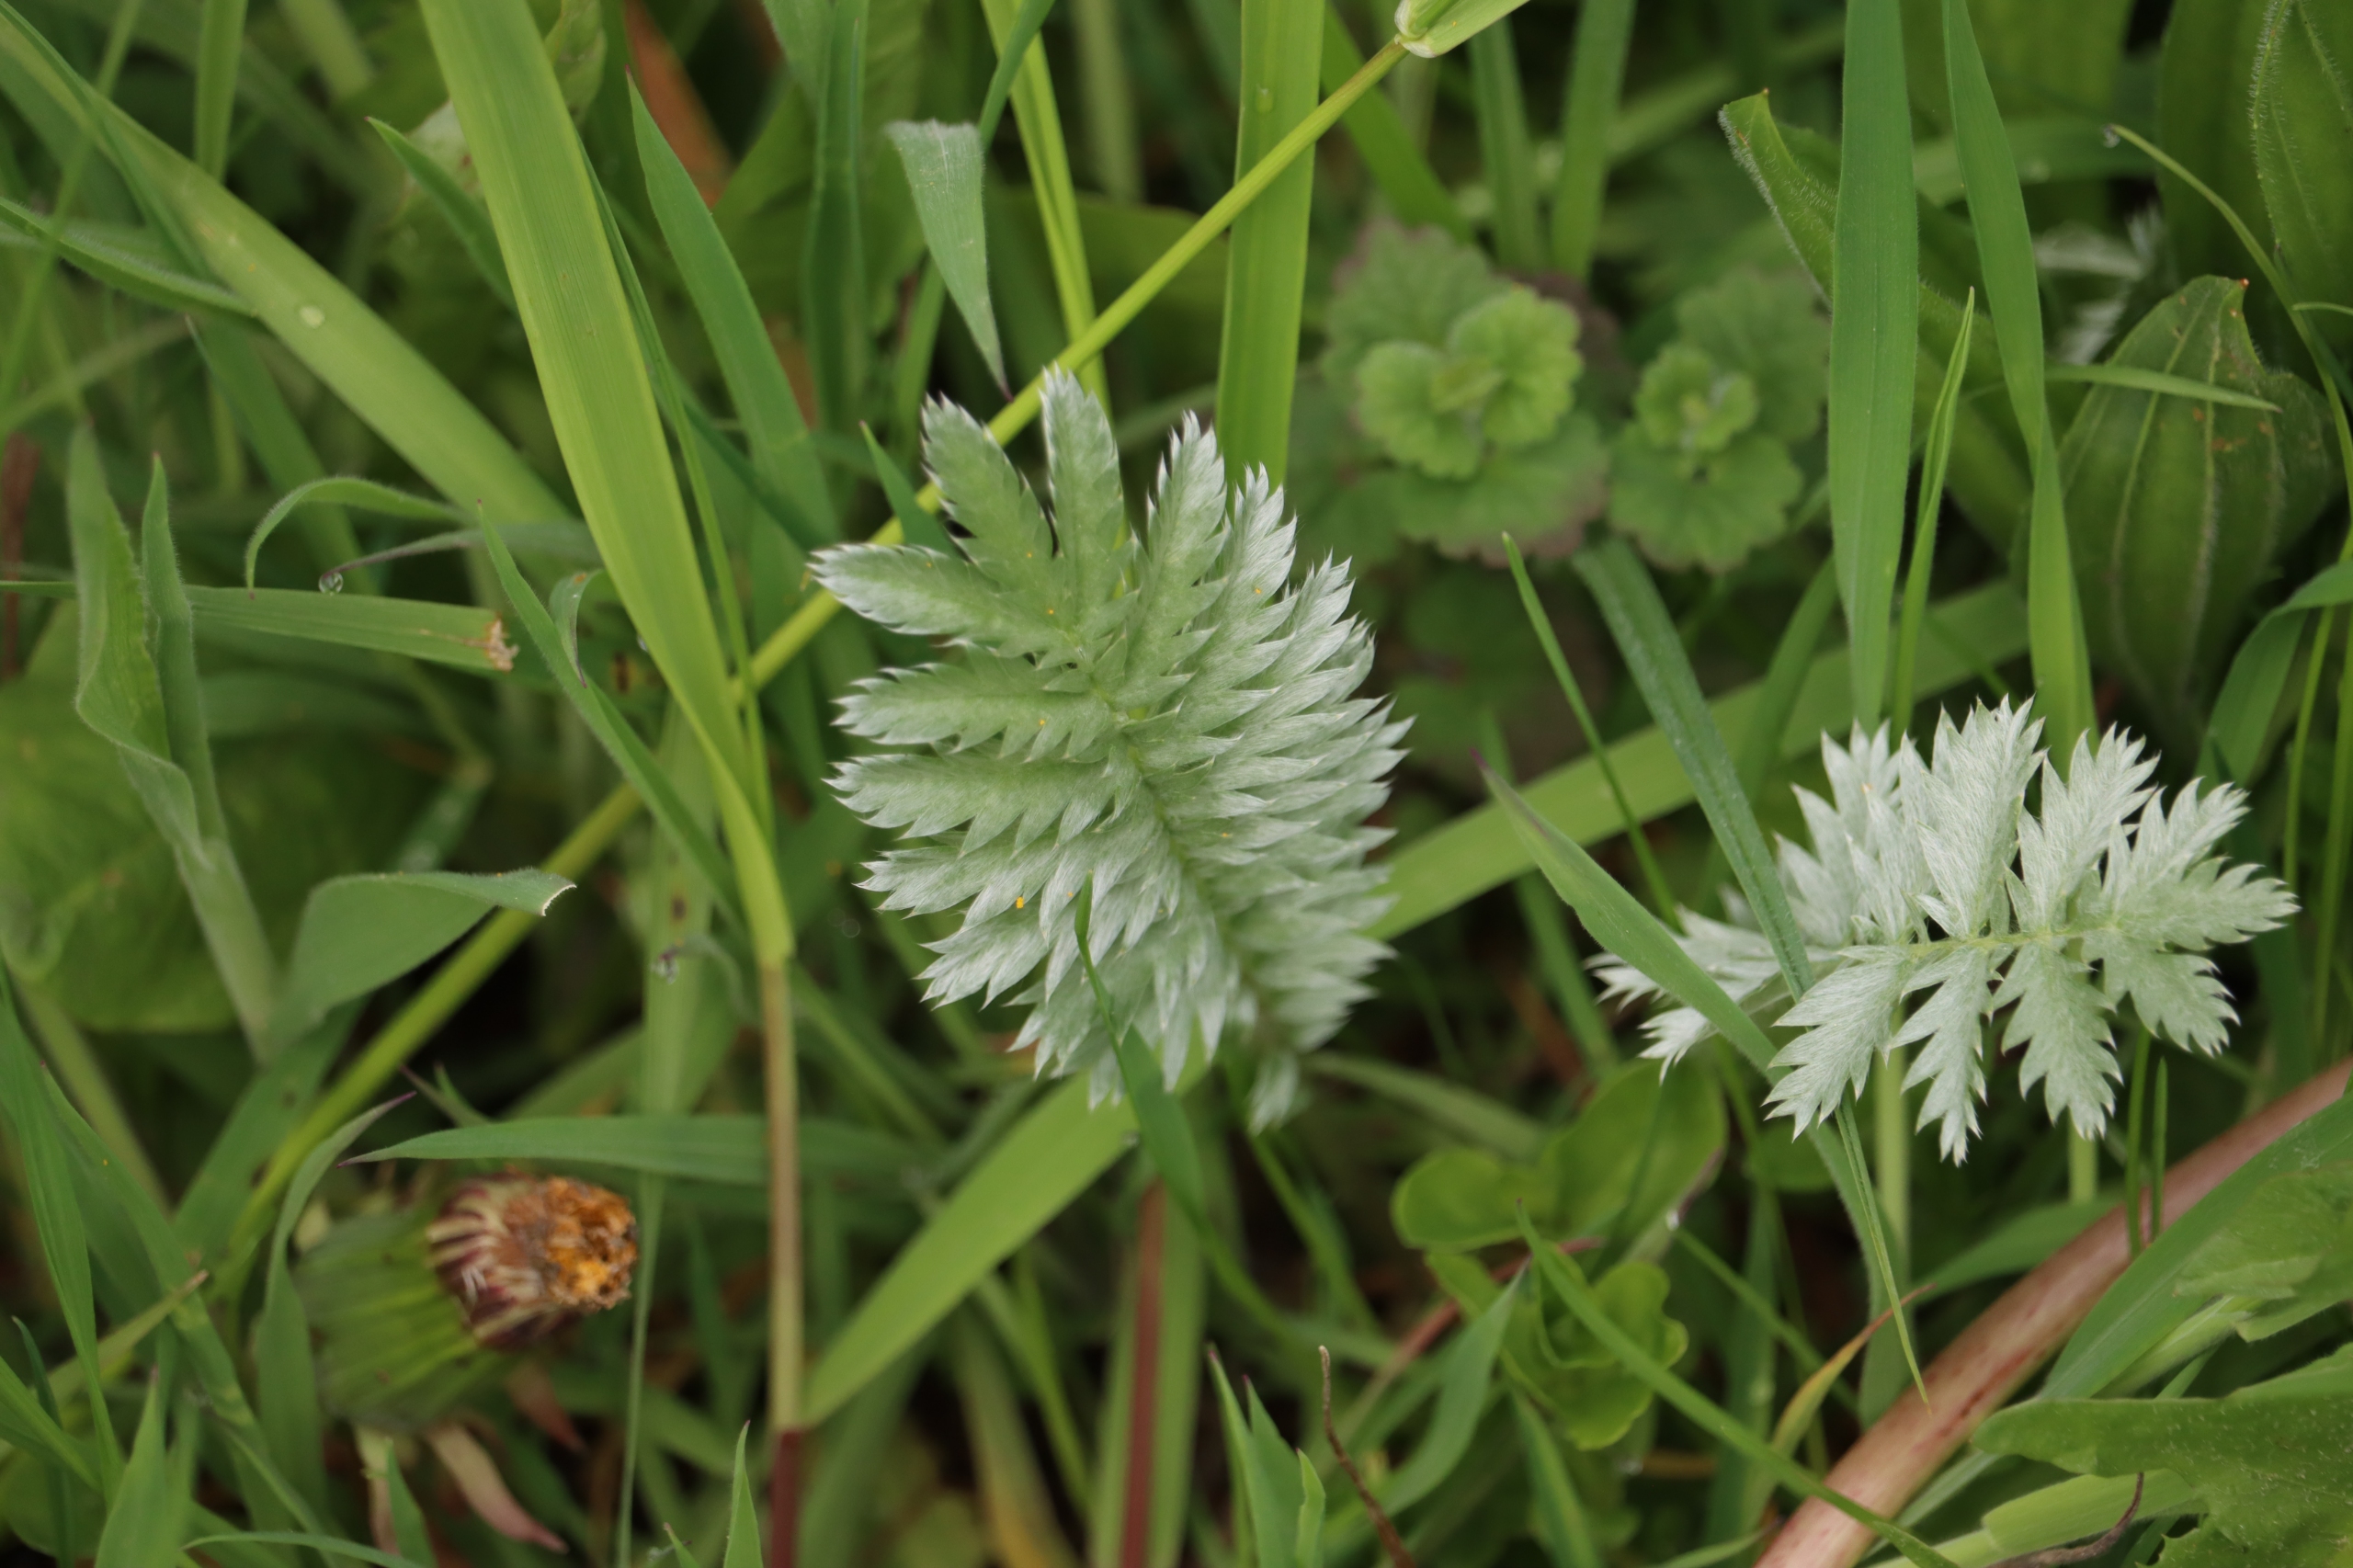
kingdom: Plantae
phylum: Tracheophyta
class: Magnoliopsida
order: Rosales
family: Rosaceae
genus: Argentina
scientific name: Argentina anserina
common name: Gåsepotentil
